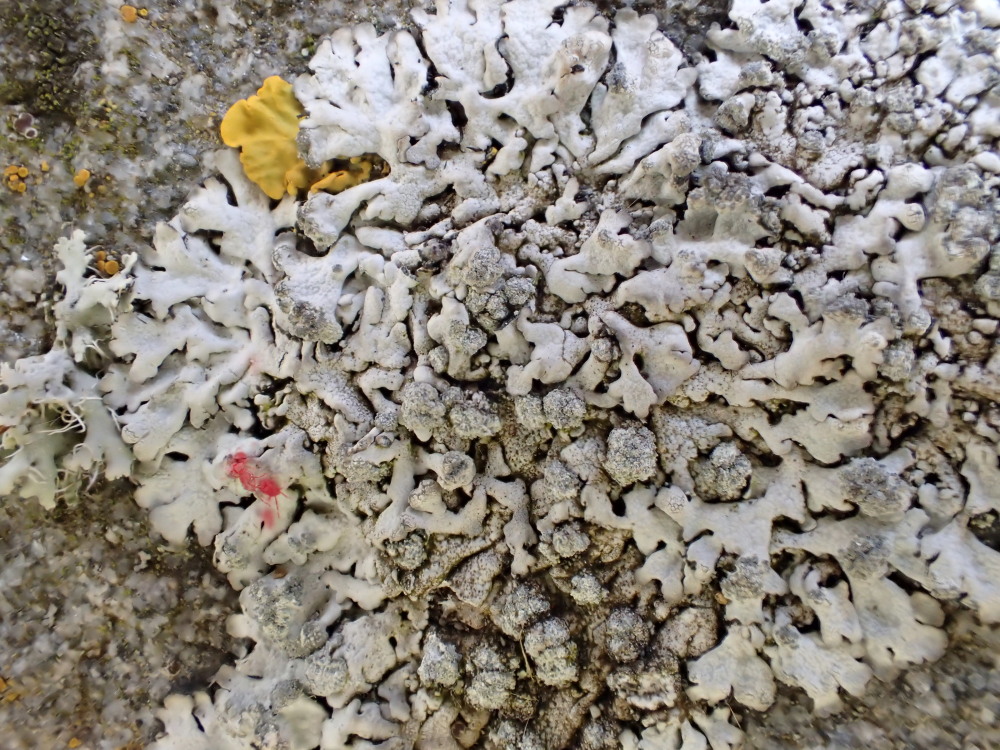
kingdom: Fungi
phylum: Ascomycota
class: Lecanoromycetes
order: Caliciales
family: Physciaceae
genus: Physcia
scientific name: Physcia caesia
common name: blågrå rosetlav
